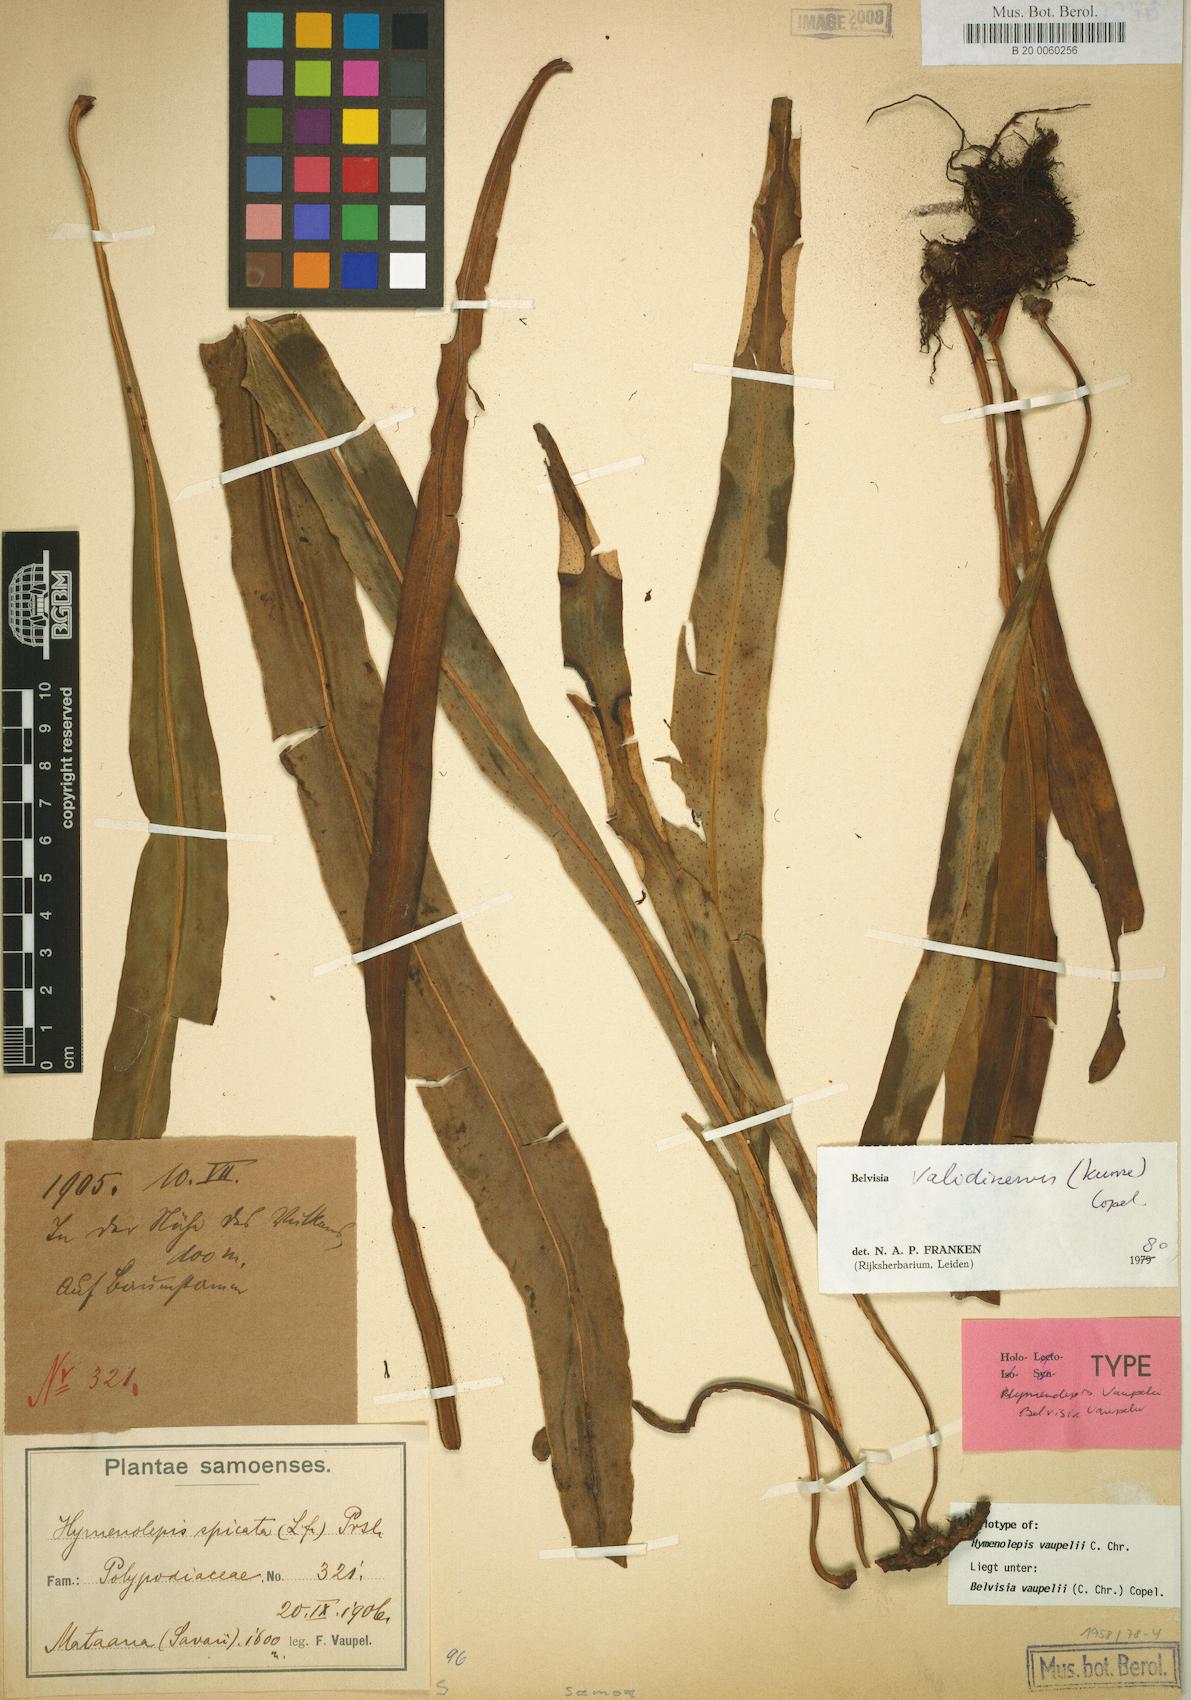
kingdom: Plantae
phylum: Tracheophyta
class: Polypodiopsida
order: Polypodiales
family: Polypodiaceae
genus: Lepisorus
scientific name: Lepisorus mucronatus
